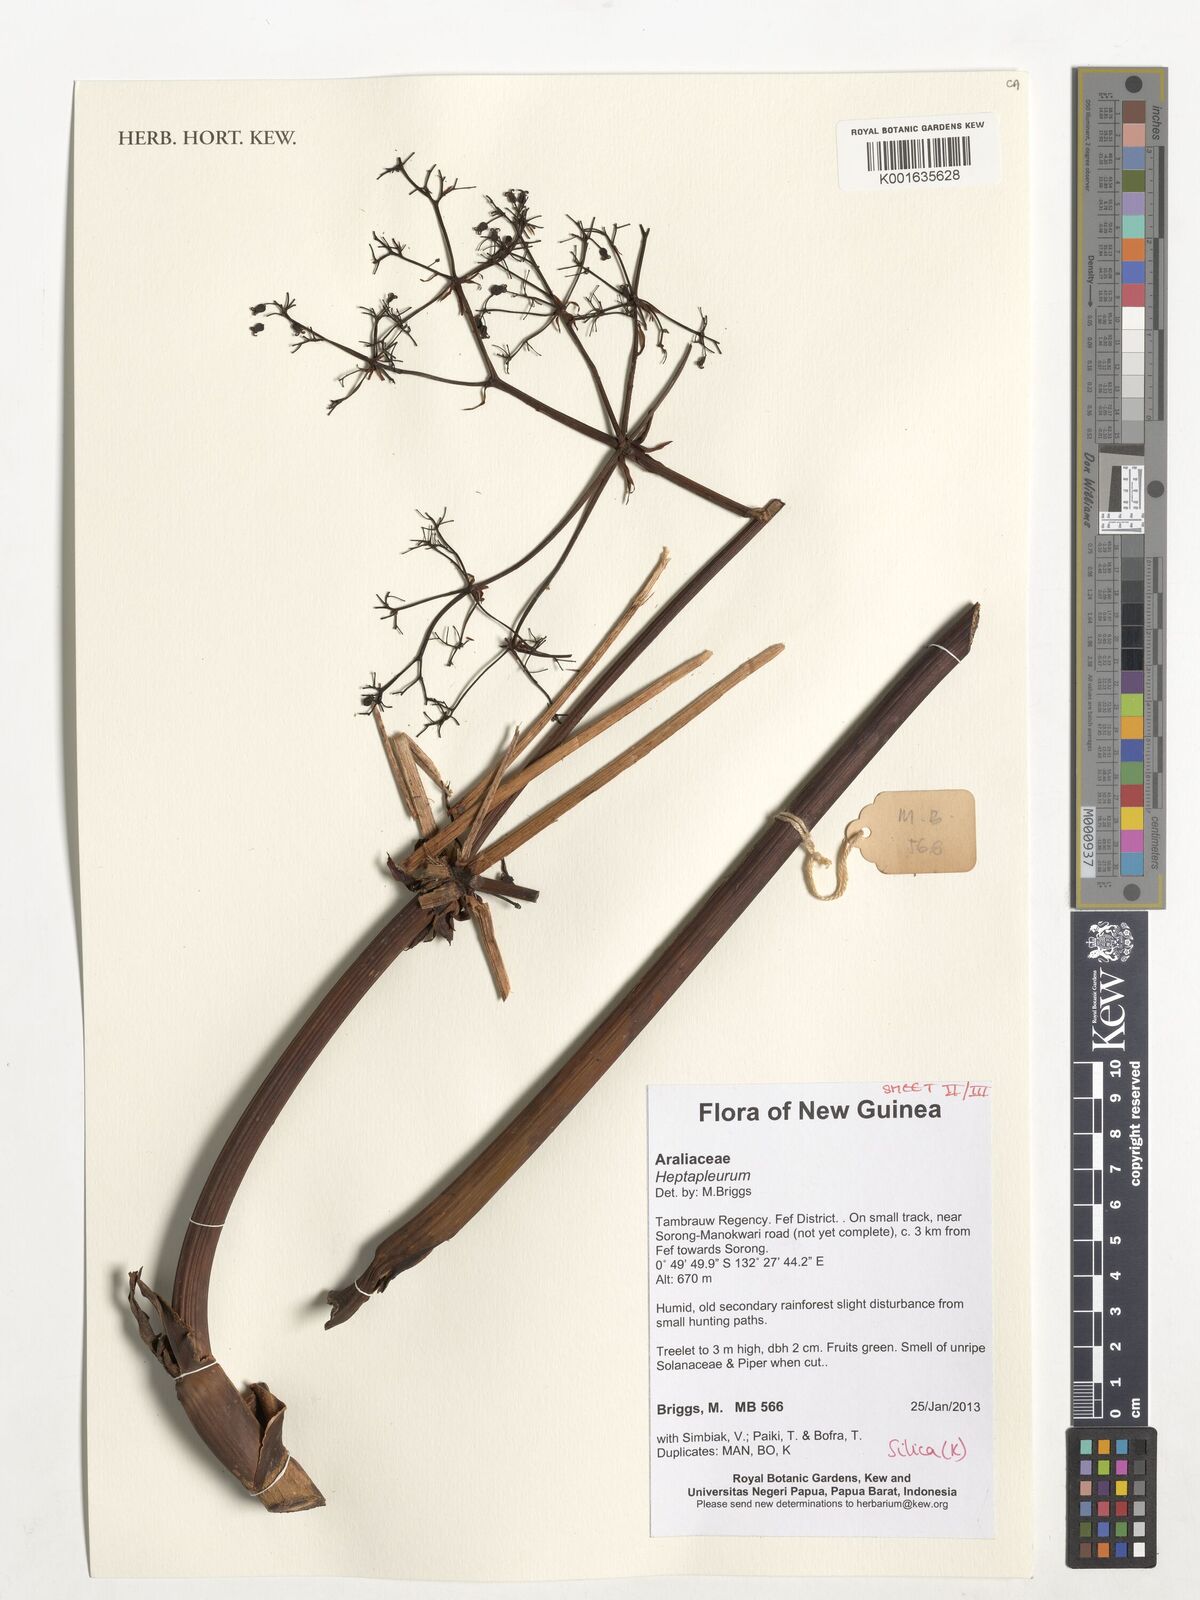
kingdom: Plantae
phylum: Tracheophyta
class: Magnoliopsida
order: Apiales
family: Araliaceae
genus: Heptapleurum
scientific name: Heptapleurum
